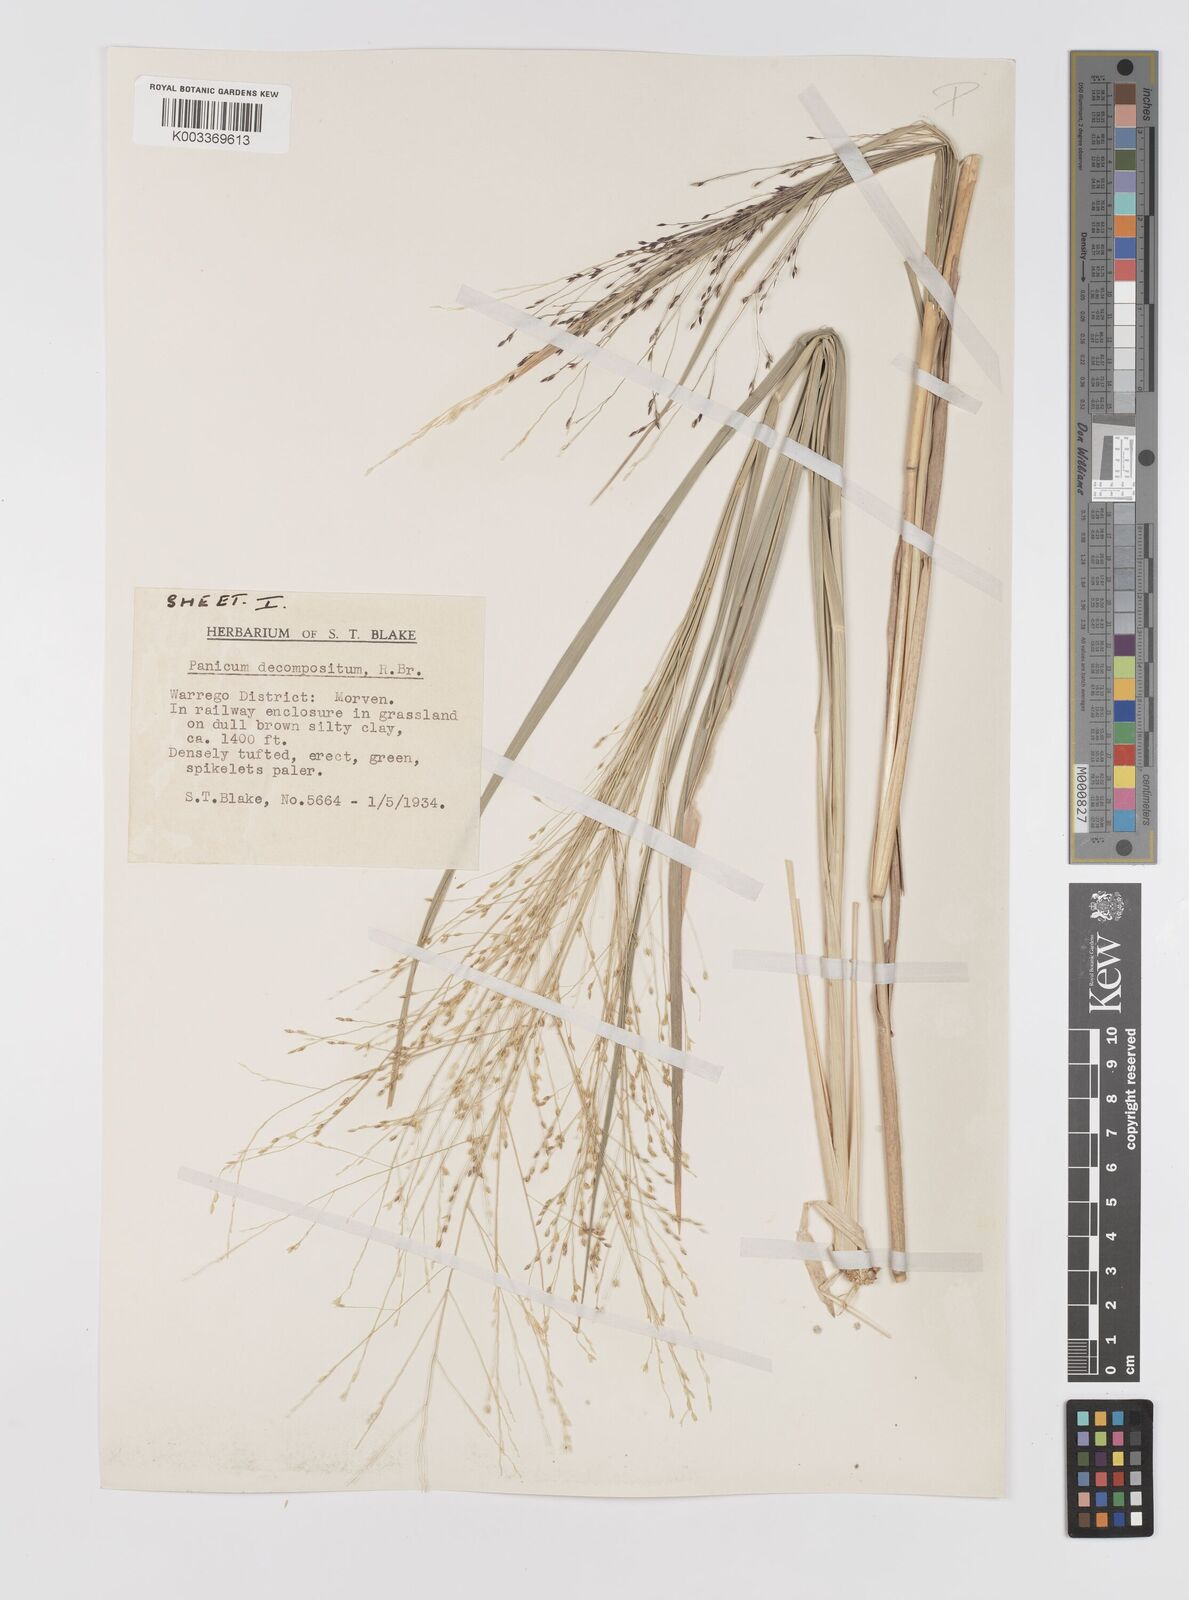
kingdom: Plantae
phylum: Tracheophyta
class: Liliopsida
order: Poales
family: Poaceae
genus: Panicum
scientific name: Panicum decompositum
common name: Australian millet
